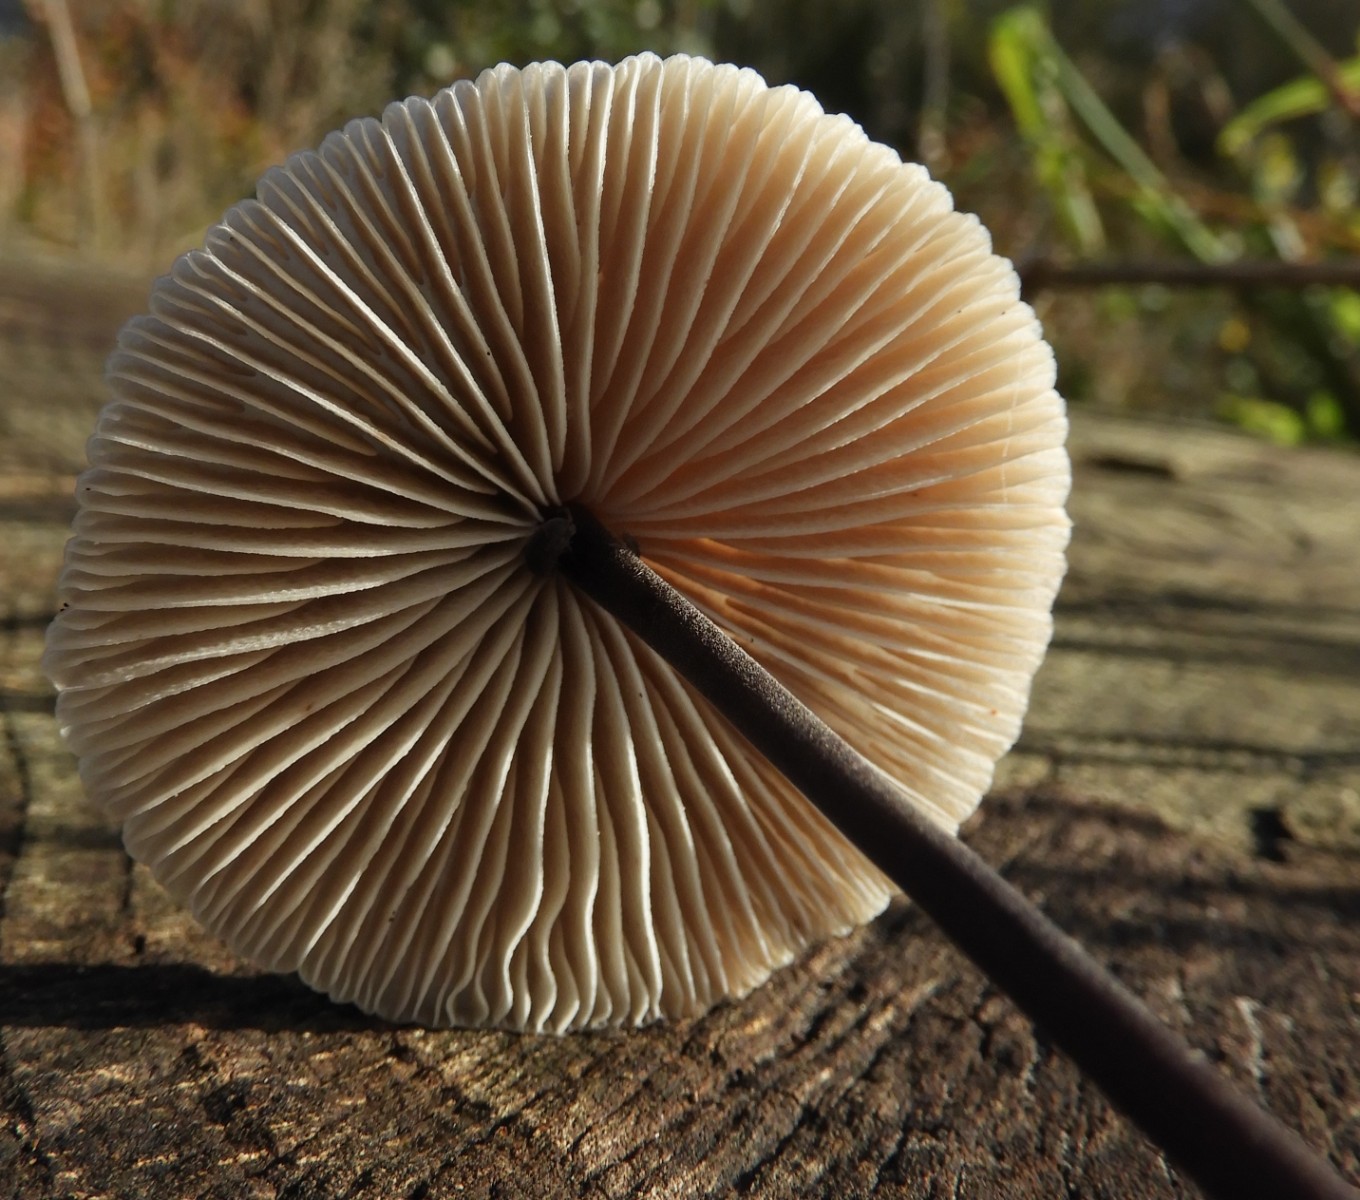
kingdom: Fungi
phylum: Basidiomycota
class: Agaricomycetes
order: Agaricales
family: Omphalotaceae
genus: Mycetinis
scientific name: Mycetinis alliaceus
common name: stor løghat
